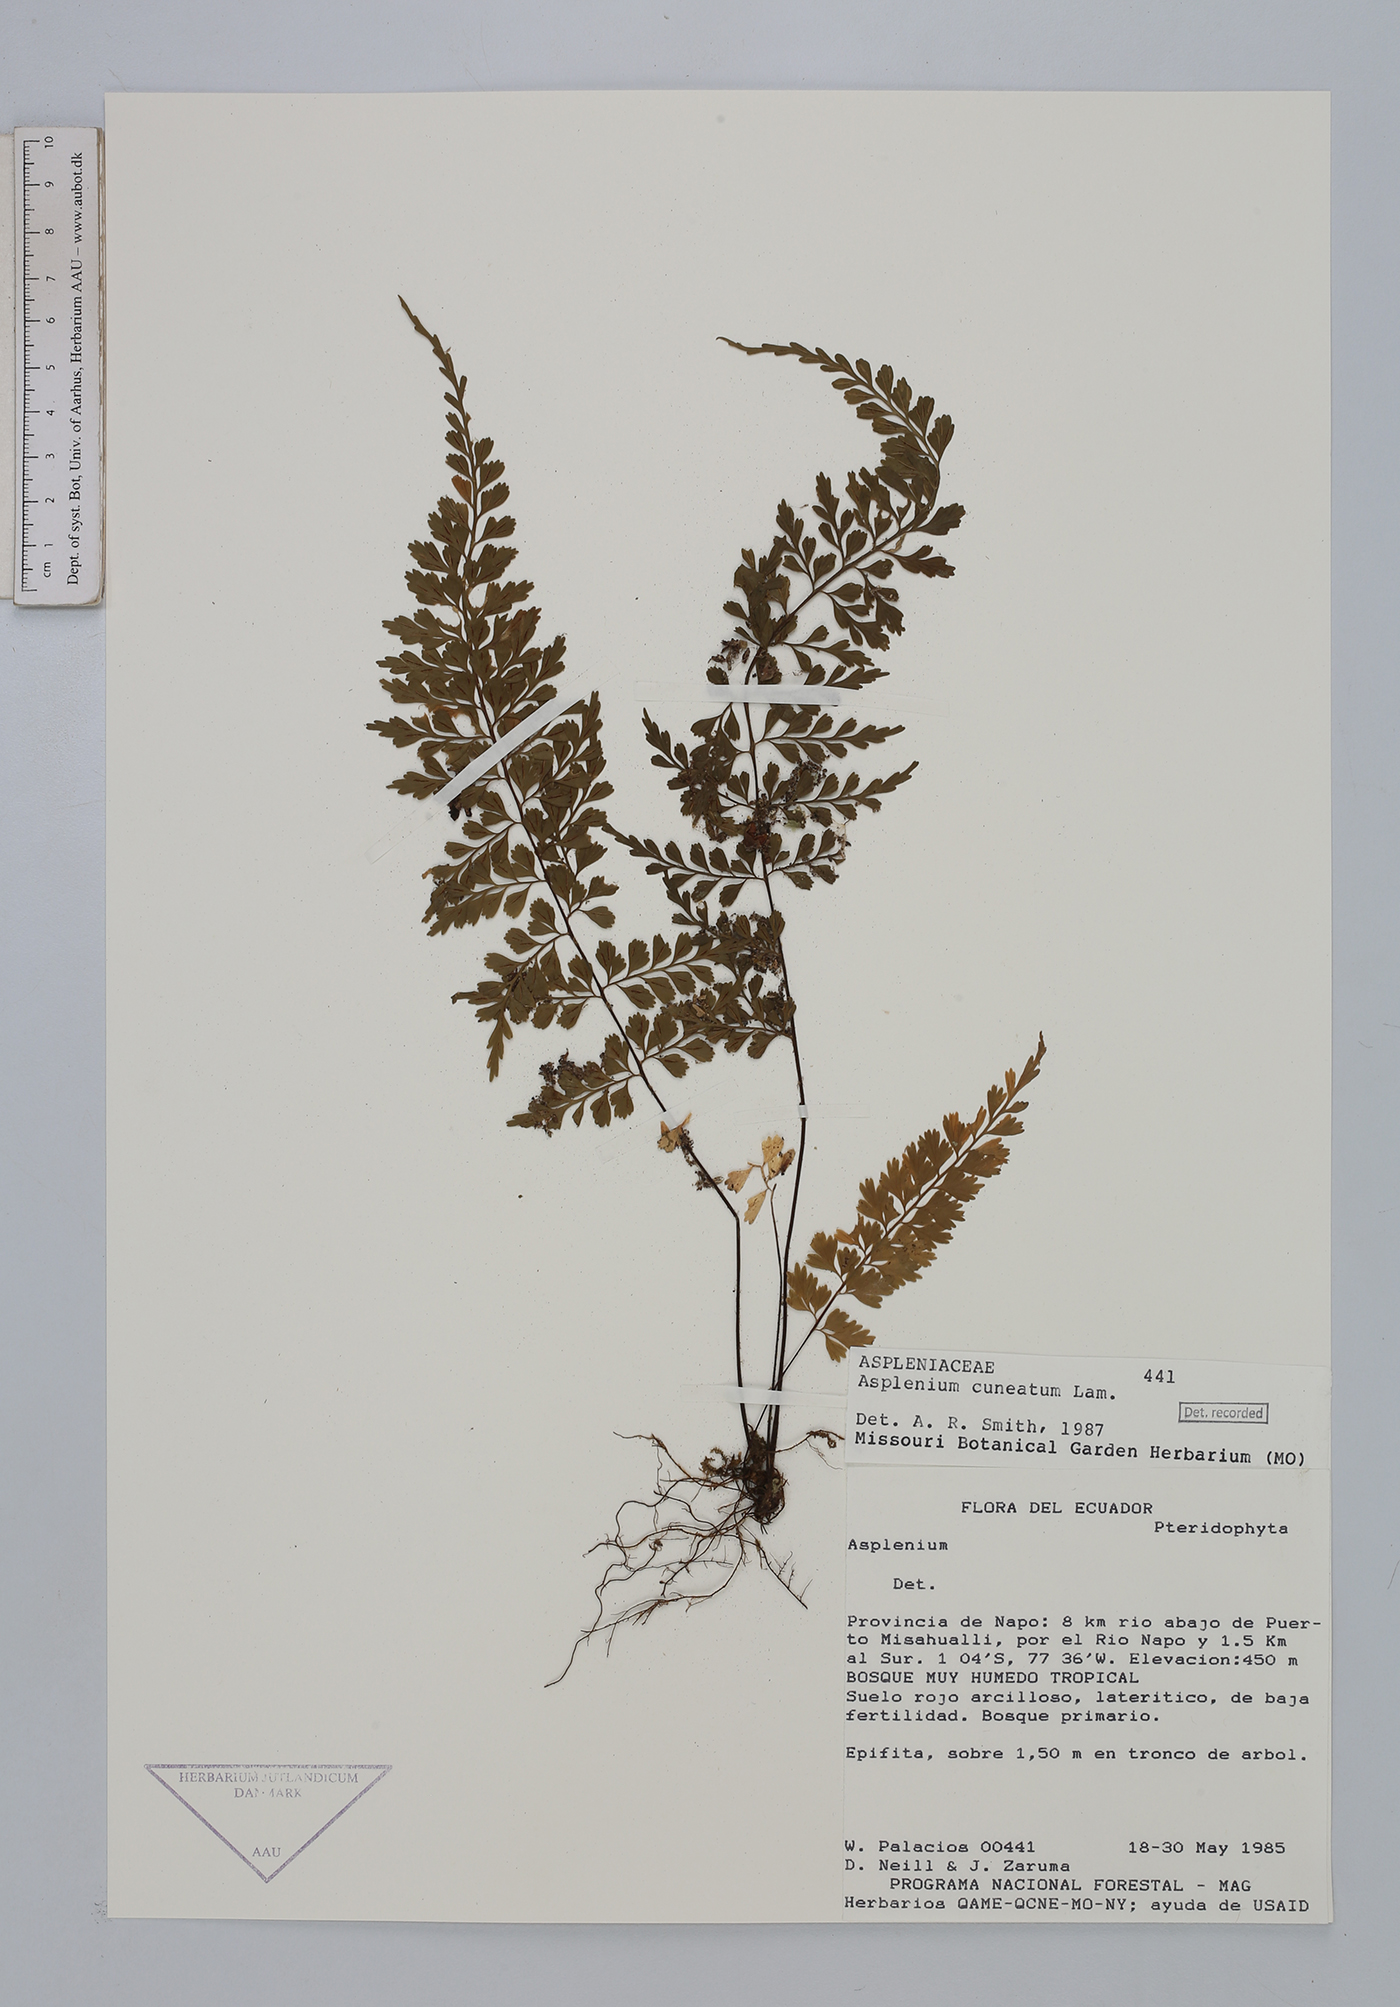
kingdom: Plantae
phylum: Tracheophyta
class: Polypodiopsida
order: Polypodiales
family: Aspleniaceae
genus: Asplenium
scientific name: Asplenium cuneatum
